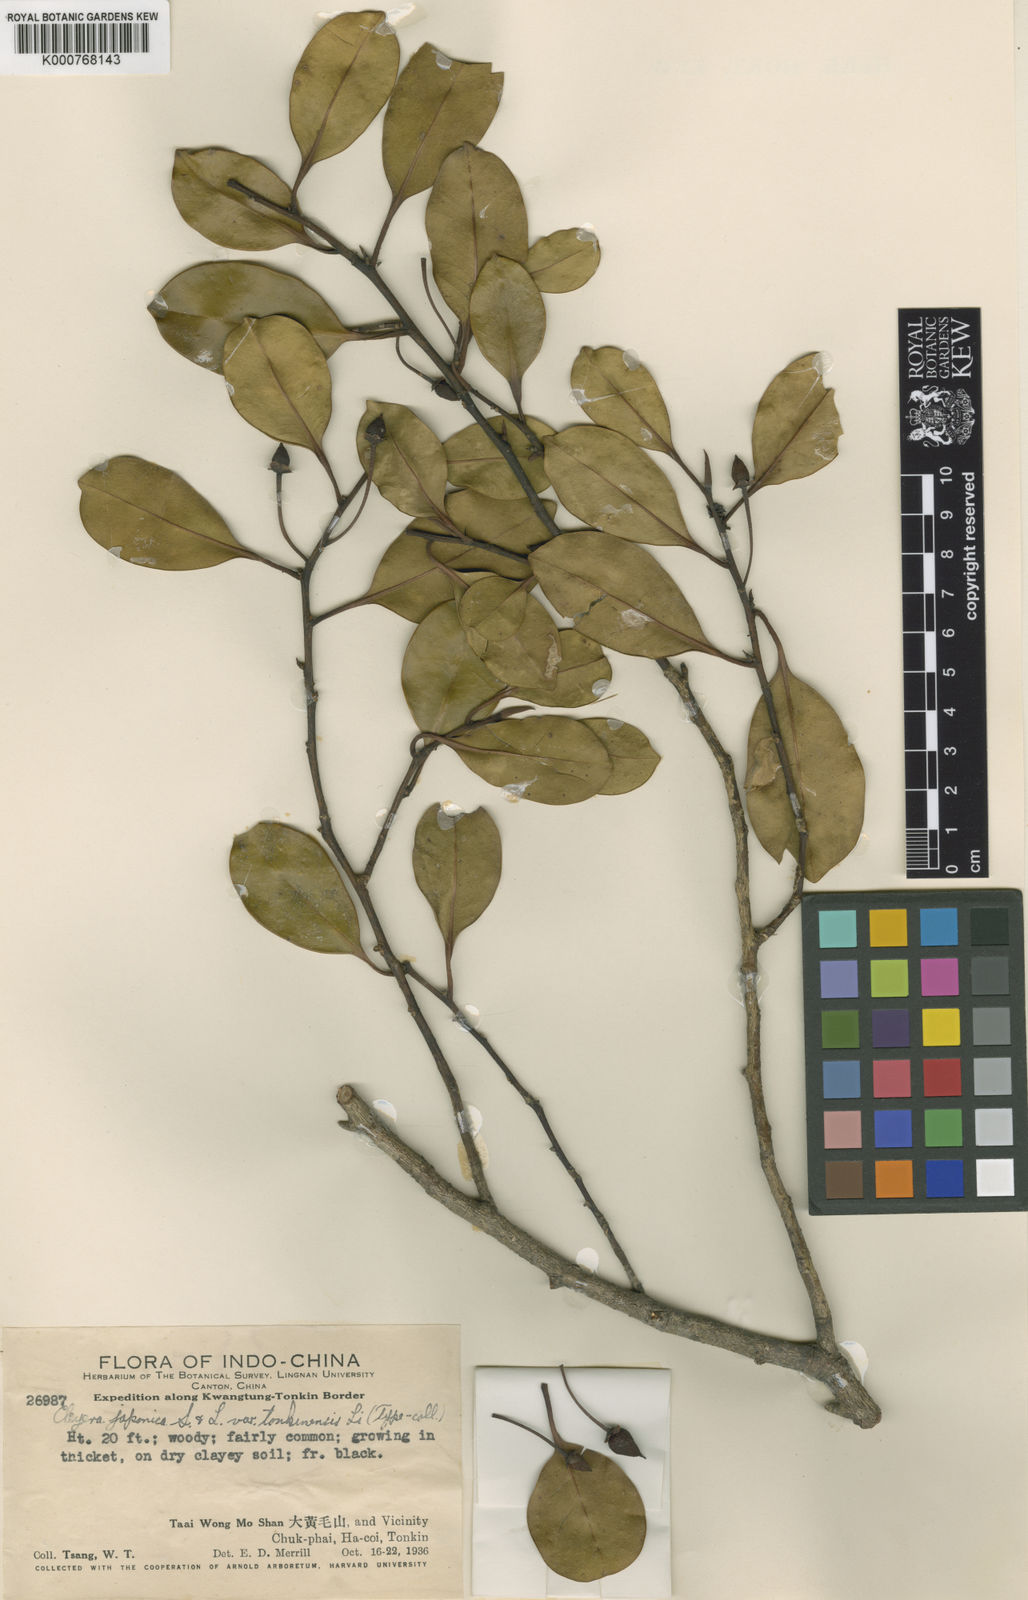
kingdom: Plantae
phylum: Tracheophyta
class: Magnoliopsida
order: Ericales
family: Pentaphylacaceae
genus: Cleyera
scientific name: Cleyera japonica
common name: Sakaki
